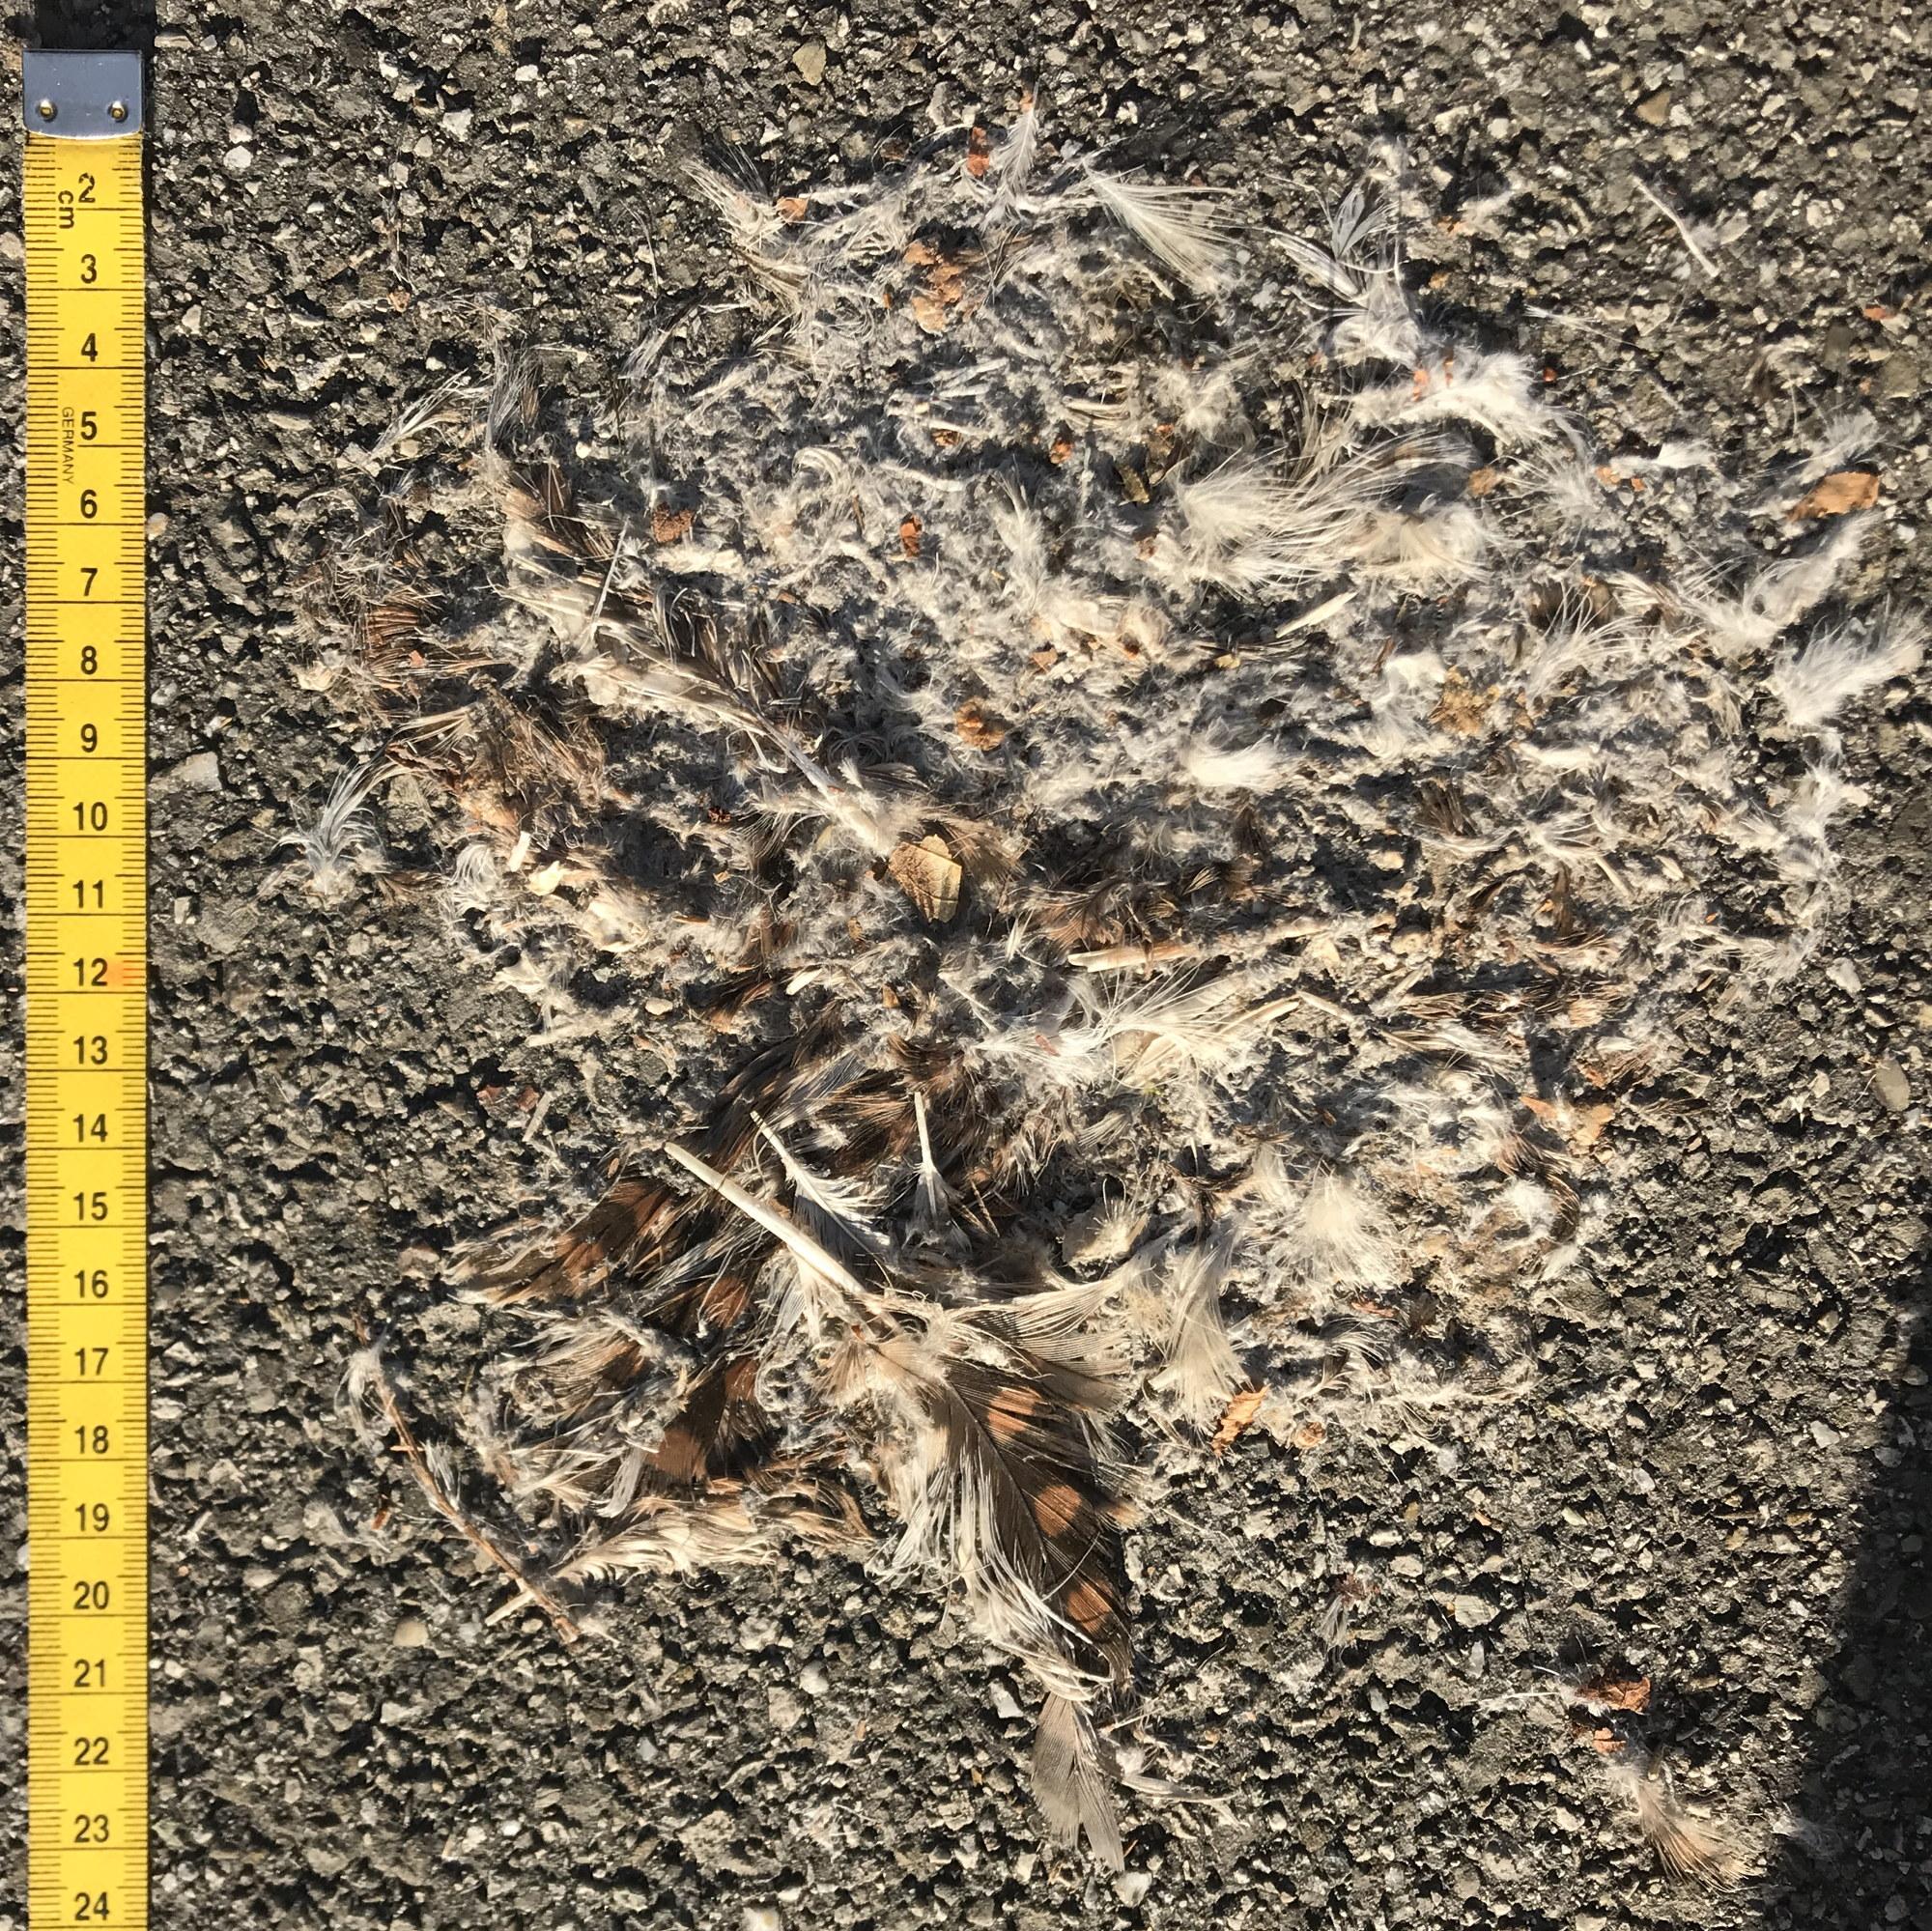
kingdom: Animalia
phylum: Chordata
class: Aves
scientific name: Aves
